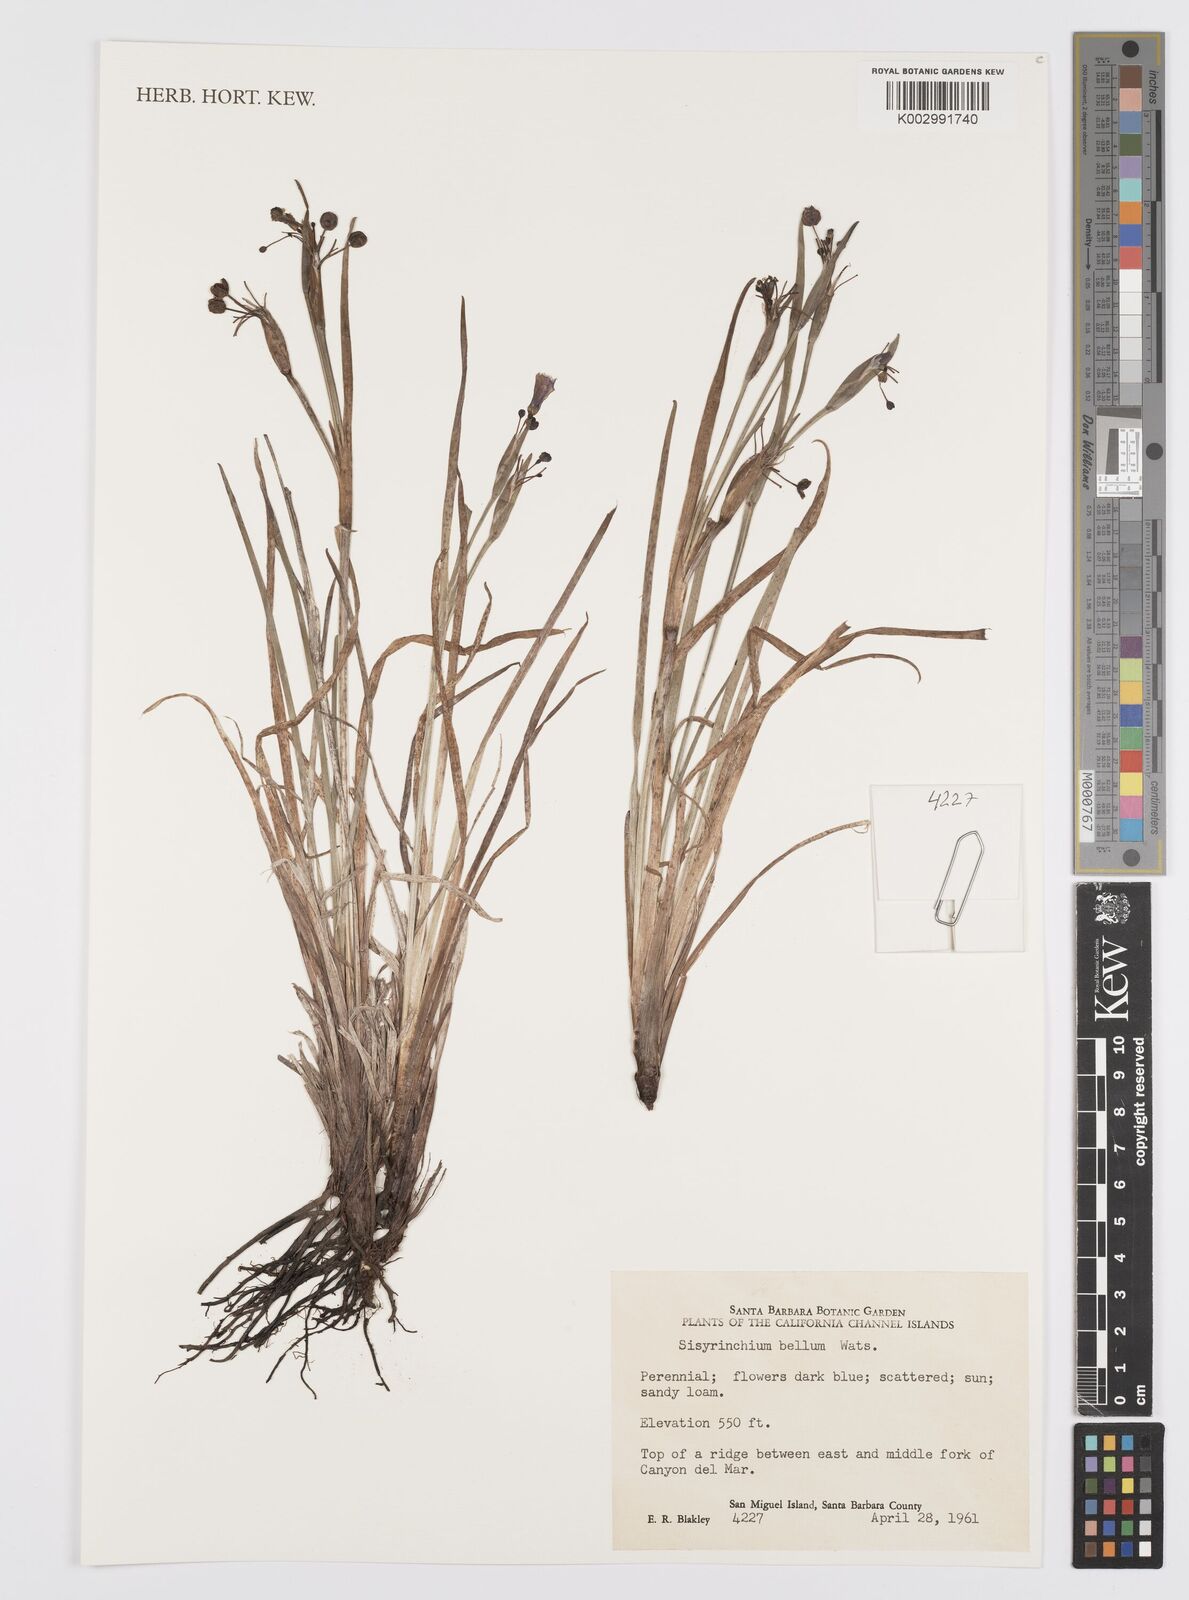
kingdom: Plantae
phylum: Tracheophyta
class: Liliopsida
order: Asparagales
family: Iridaceae
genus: Sisyrinchium
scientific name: Sisyrinchium bellum
